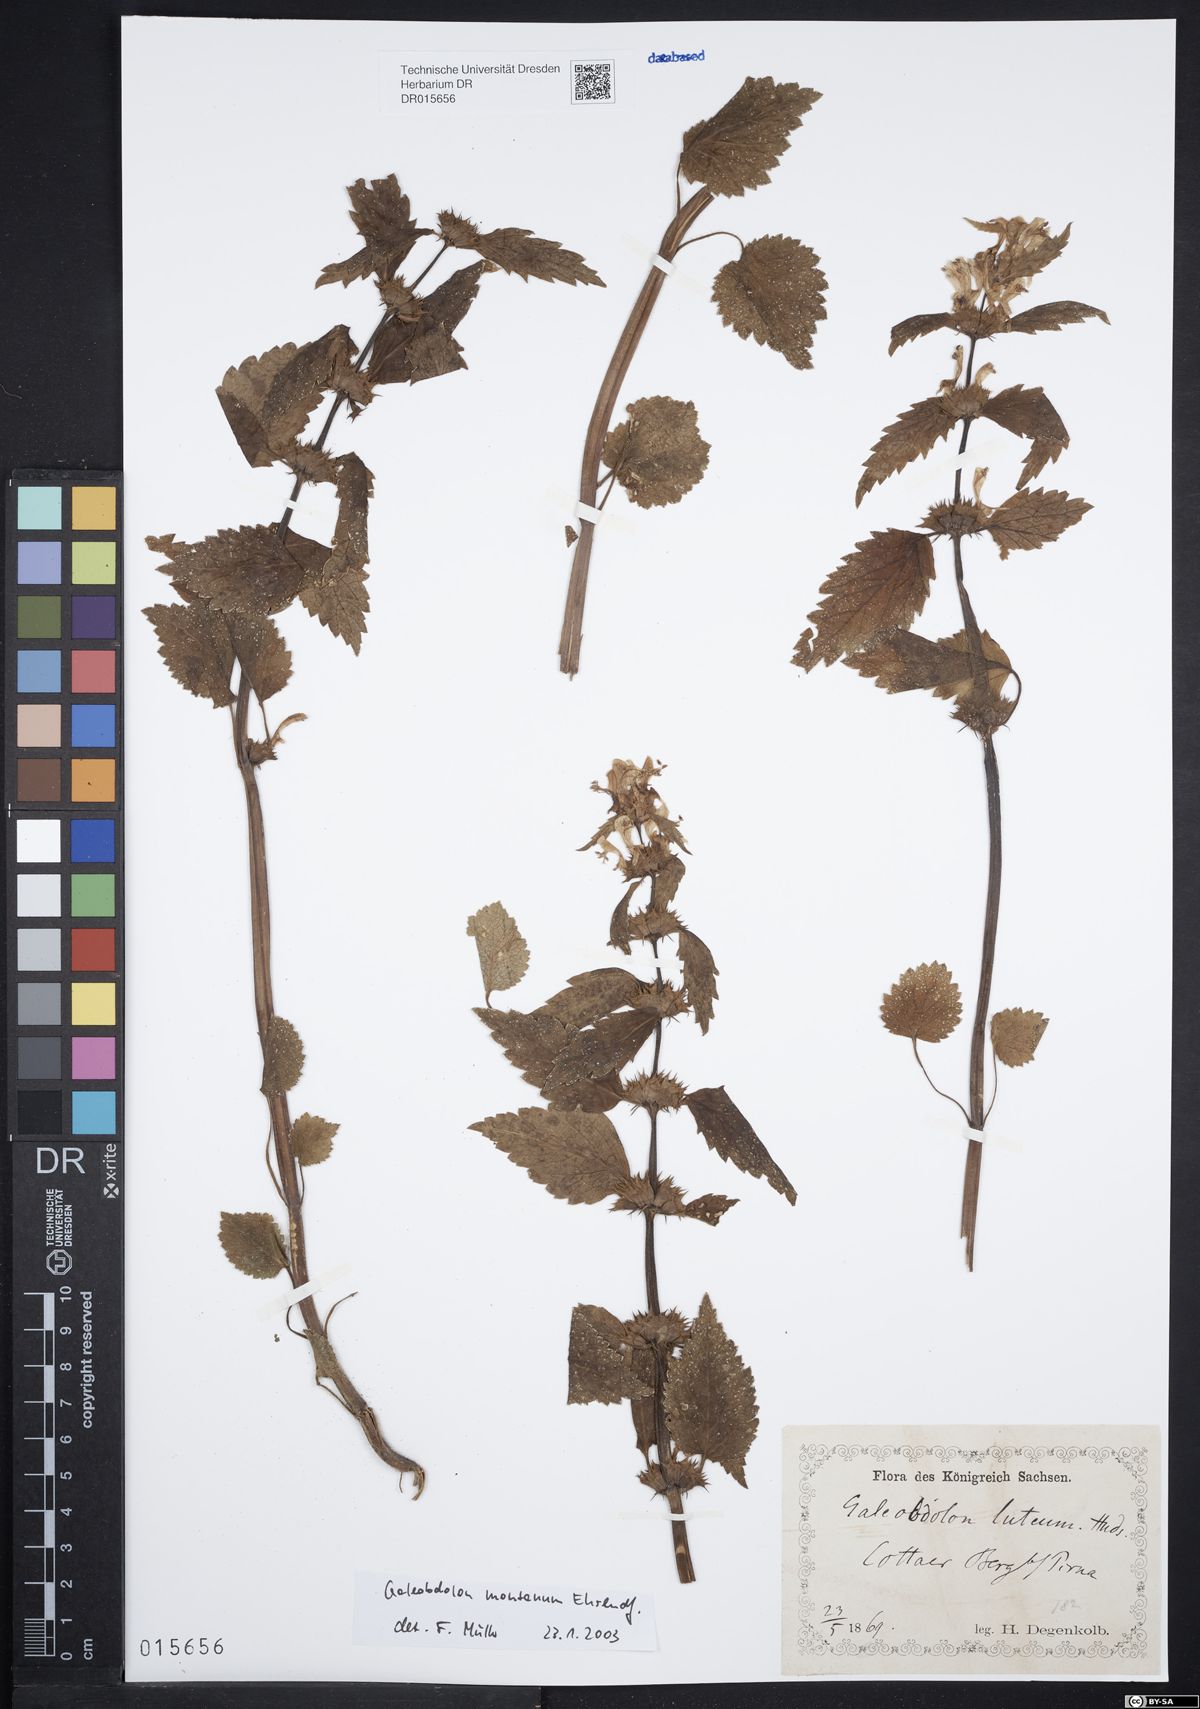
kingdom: Plantae
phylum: Tracheophyta
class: Magnoliopsida
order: Lamiales
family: Lamiaceae
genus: Lamium
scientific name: Lamium galeobdolon
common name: Yellow archangel
